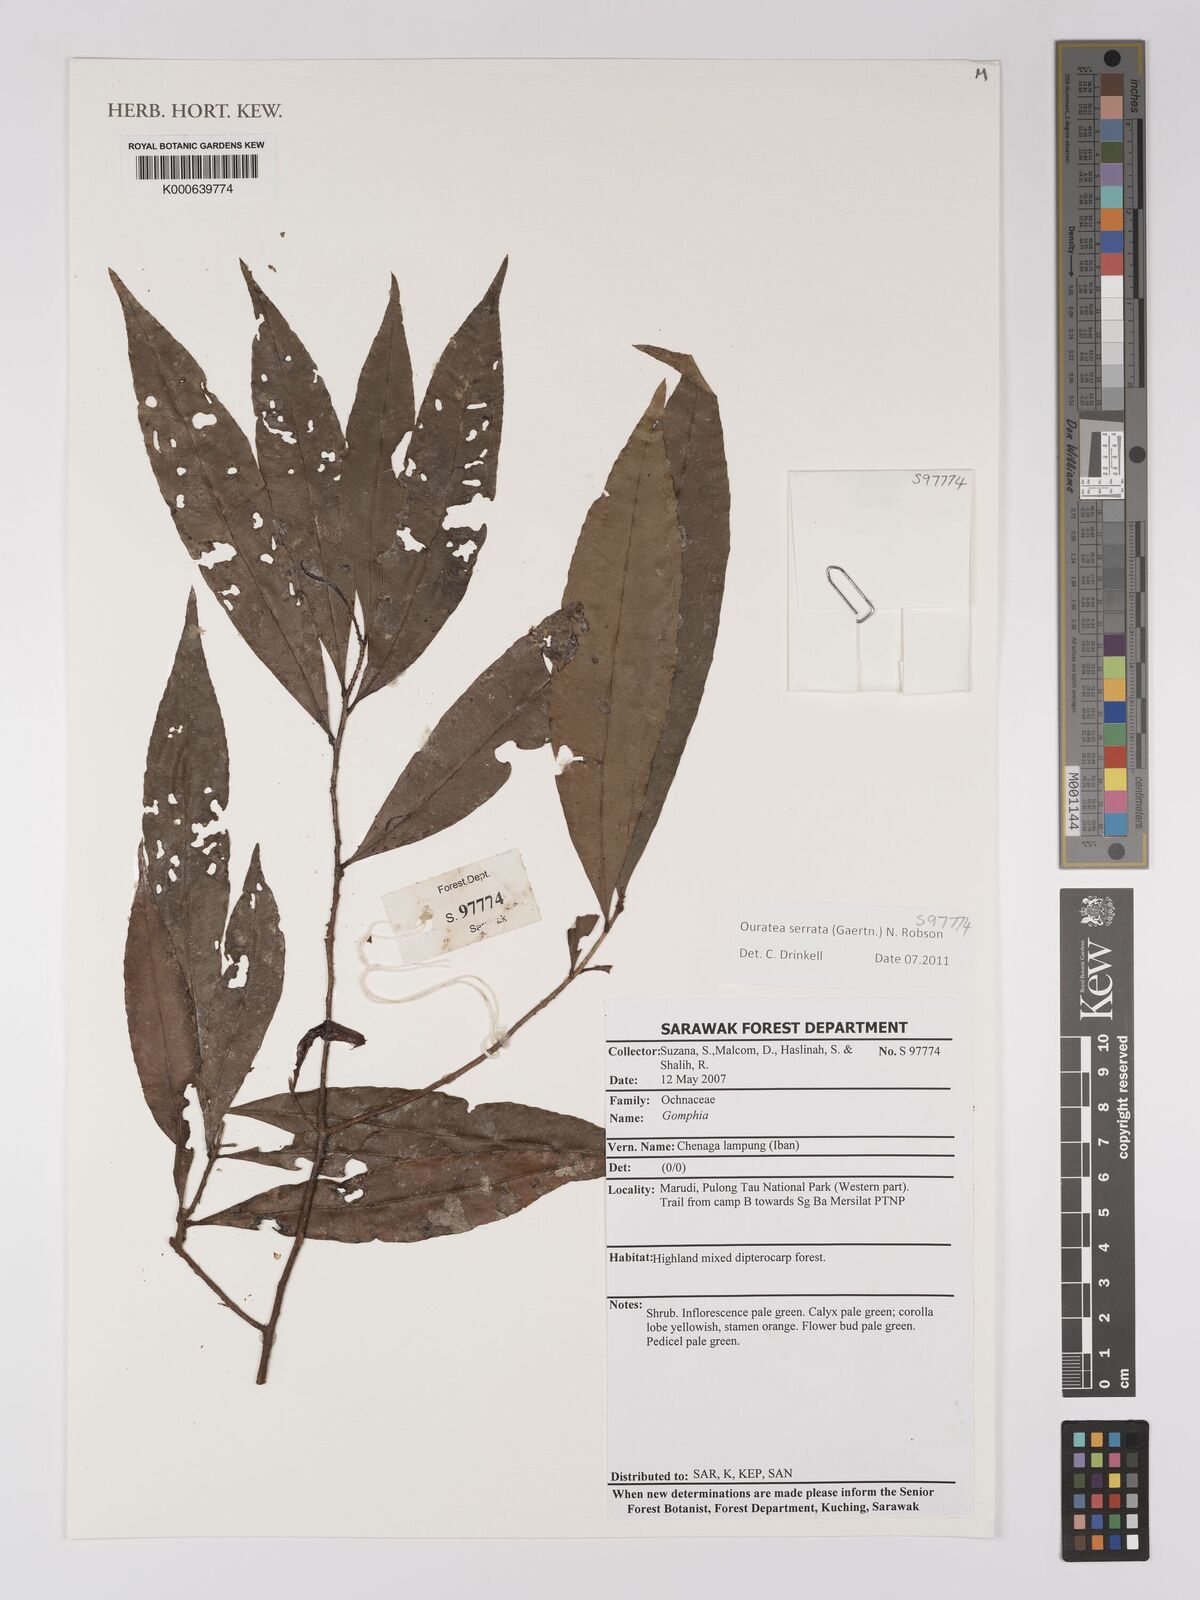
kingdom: Plantae
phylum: Tracheophyta
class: Magnoliopsida
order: Malpighiales
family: Ochnaceae
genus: Gomphia
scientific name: Gomphia serrata
